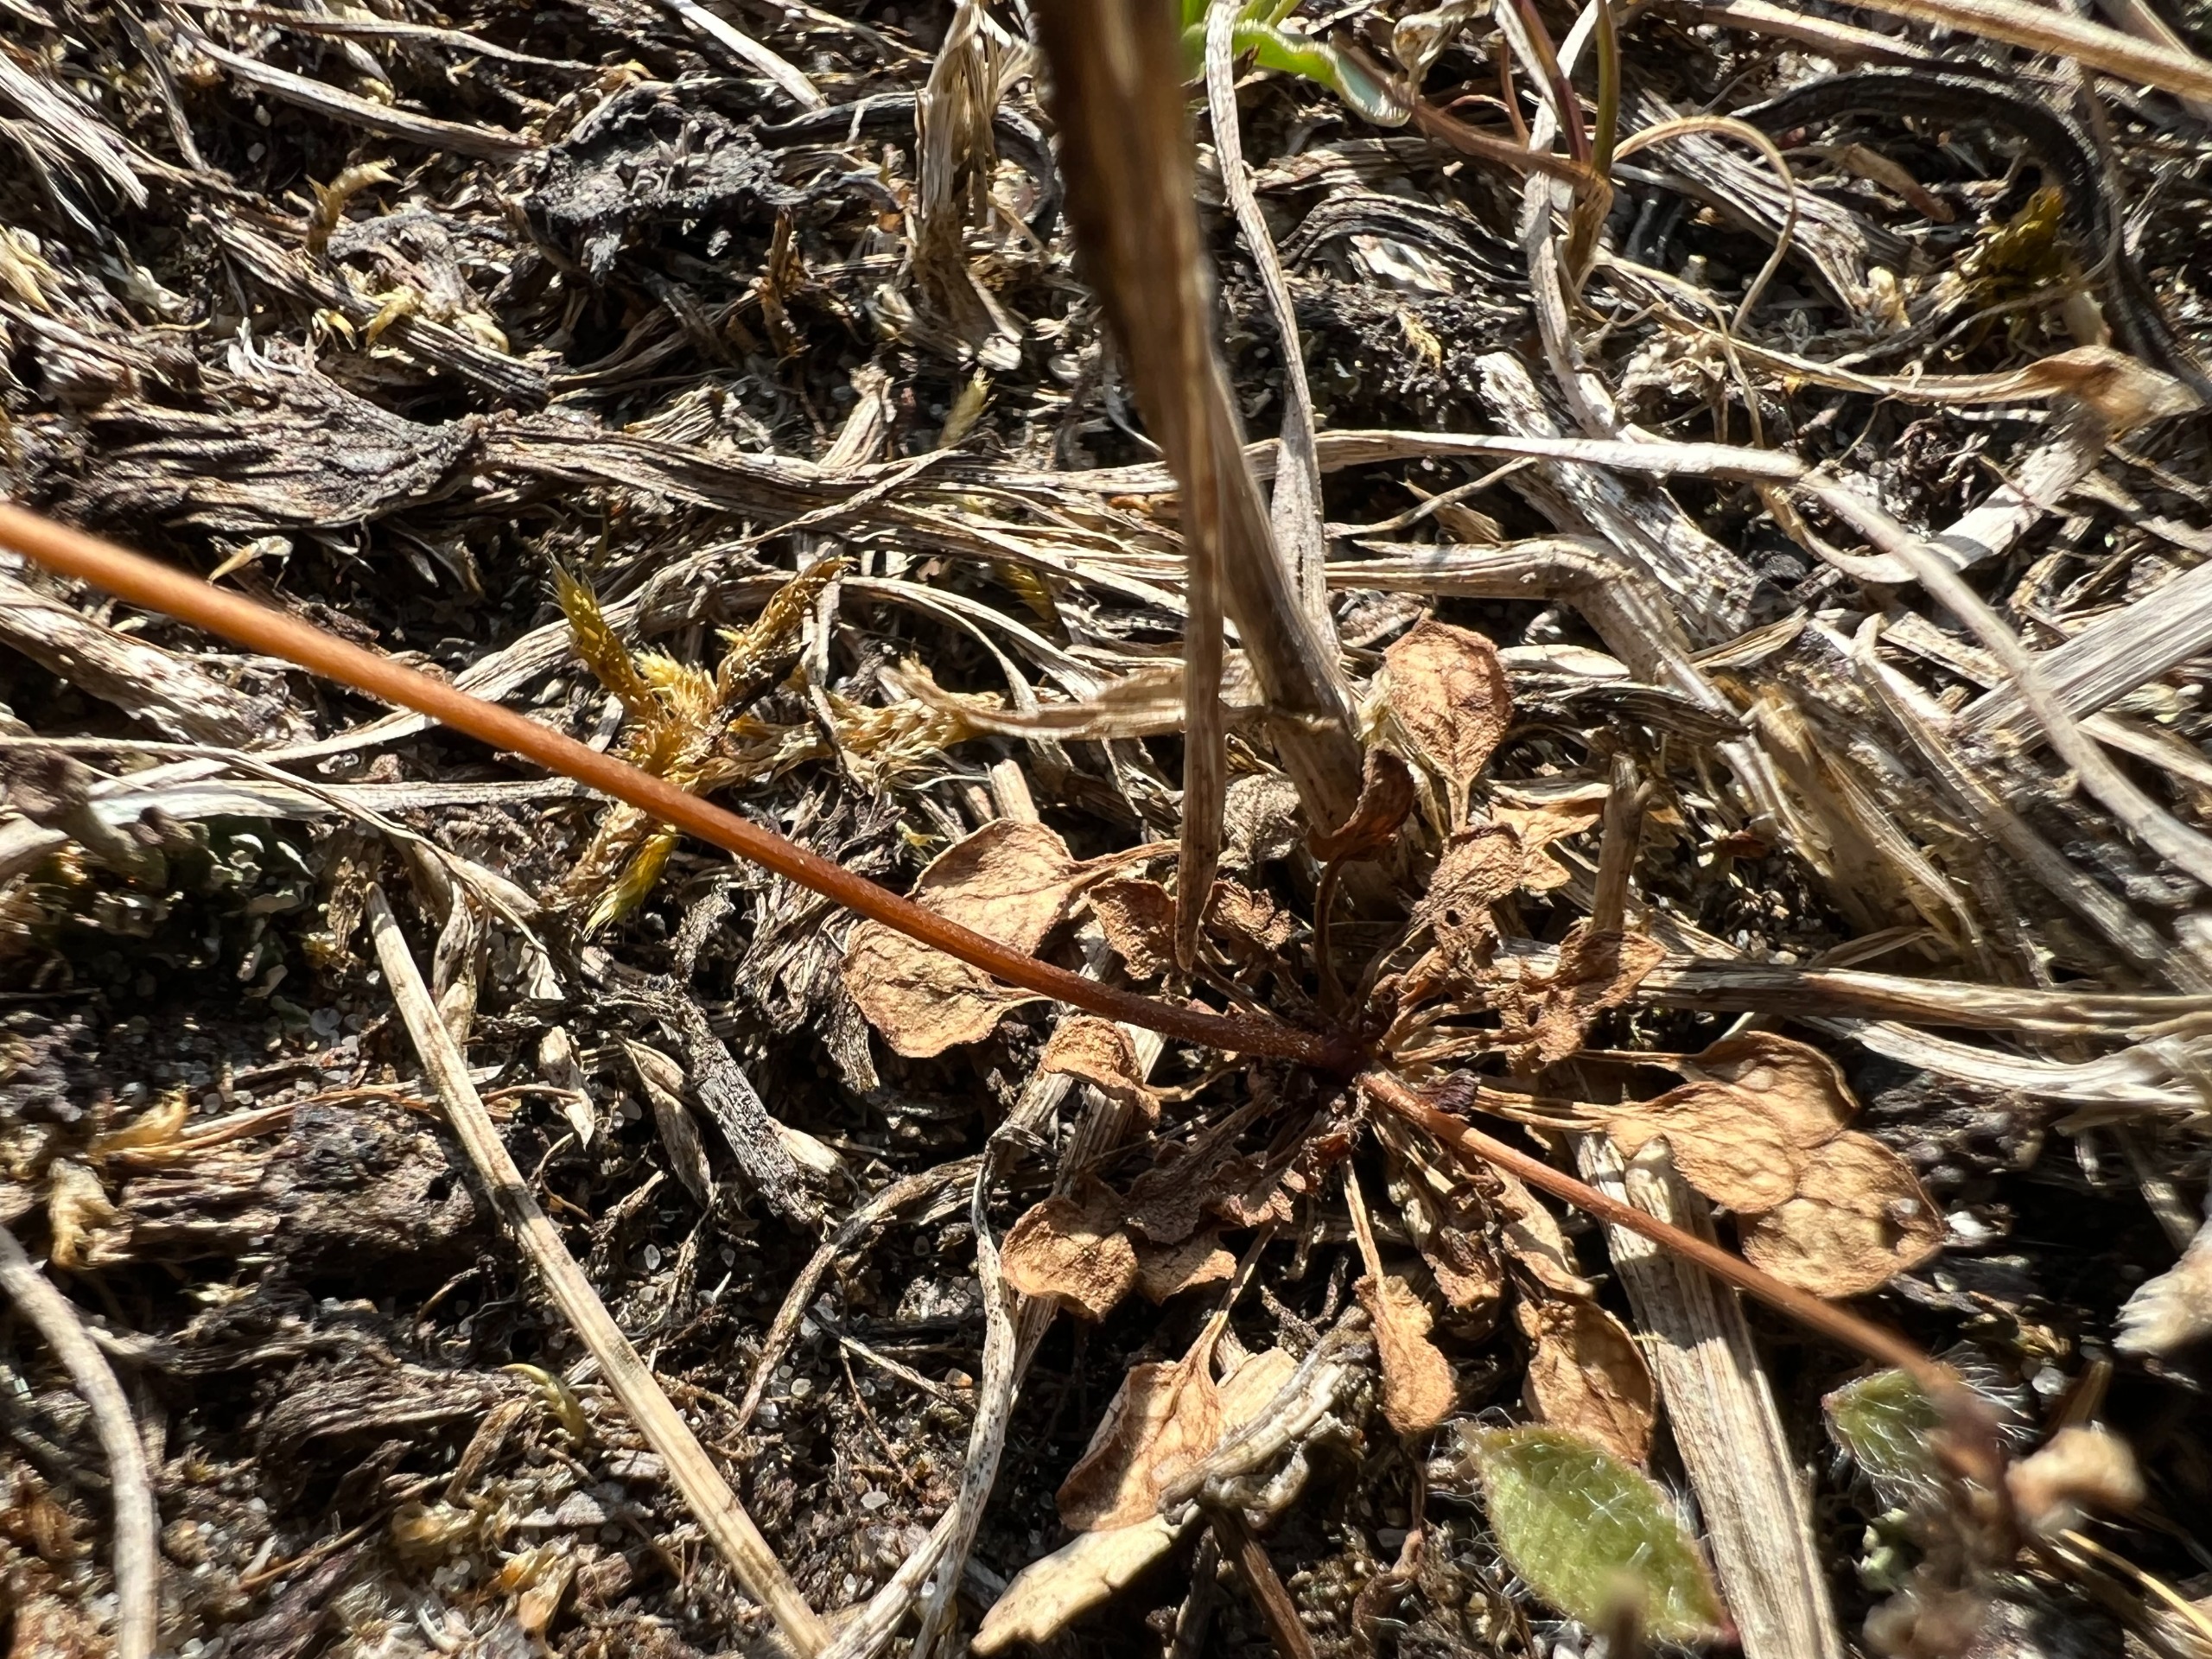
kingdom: Plantae
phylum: Tracheophyta
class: Magnoliopsida
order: Brassicales
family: Brassicaceae
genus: Teesdalia
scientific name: Teesdalia nudicaulis
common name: Flipkrave
